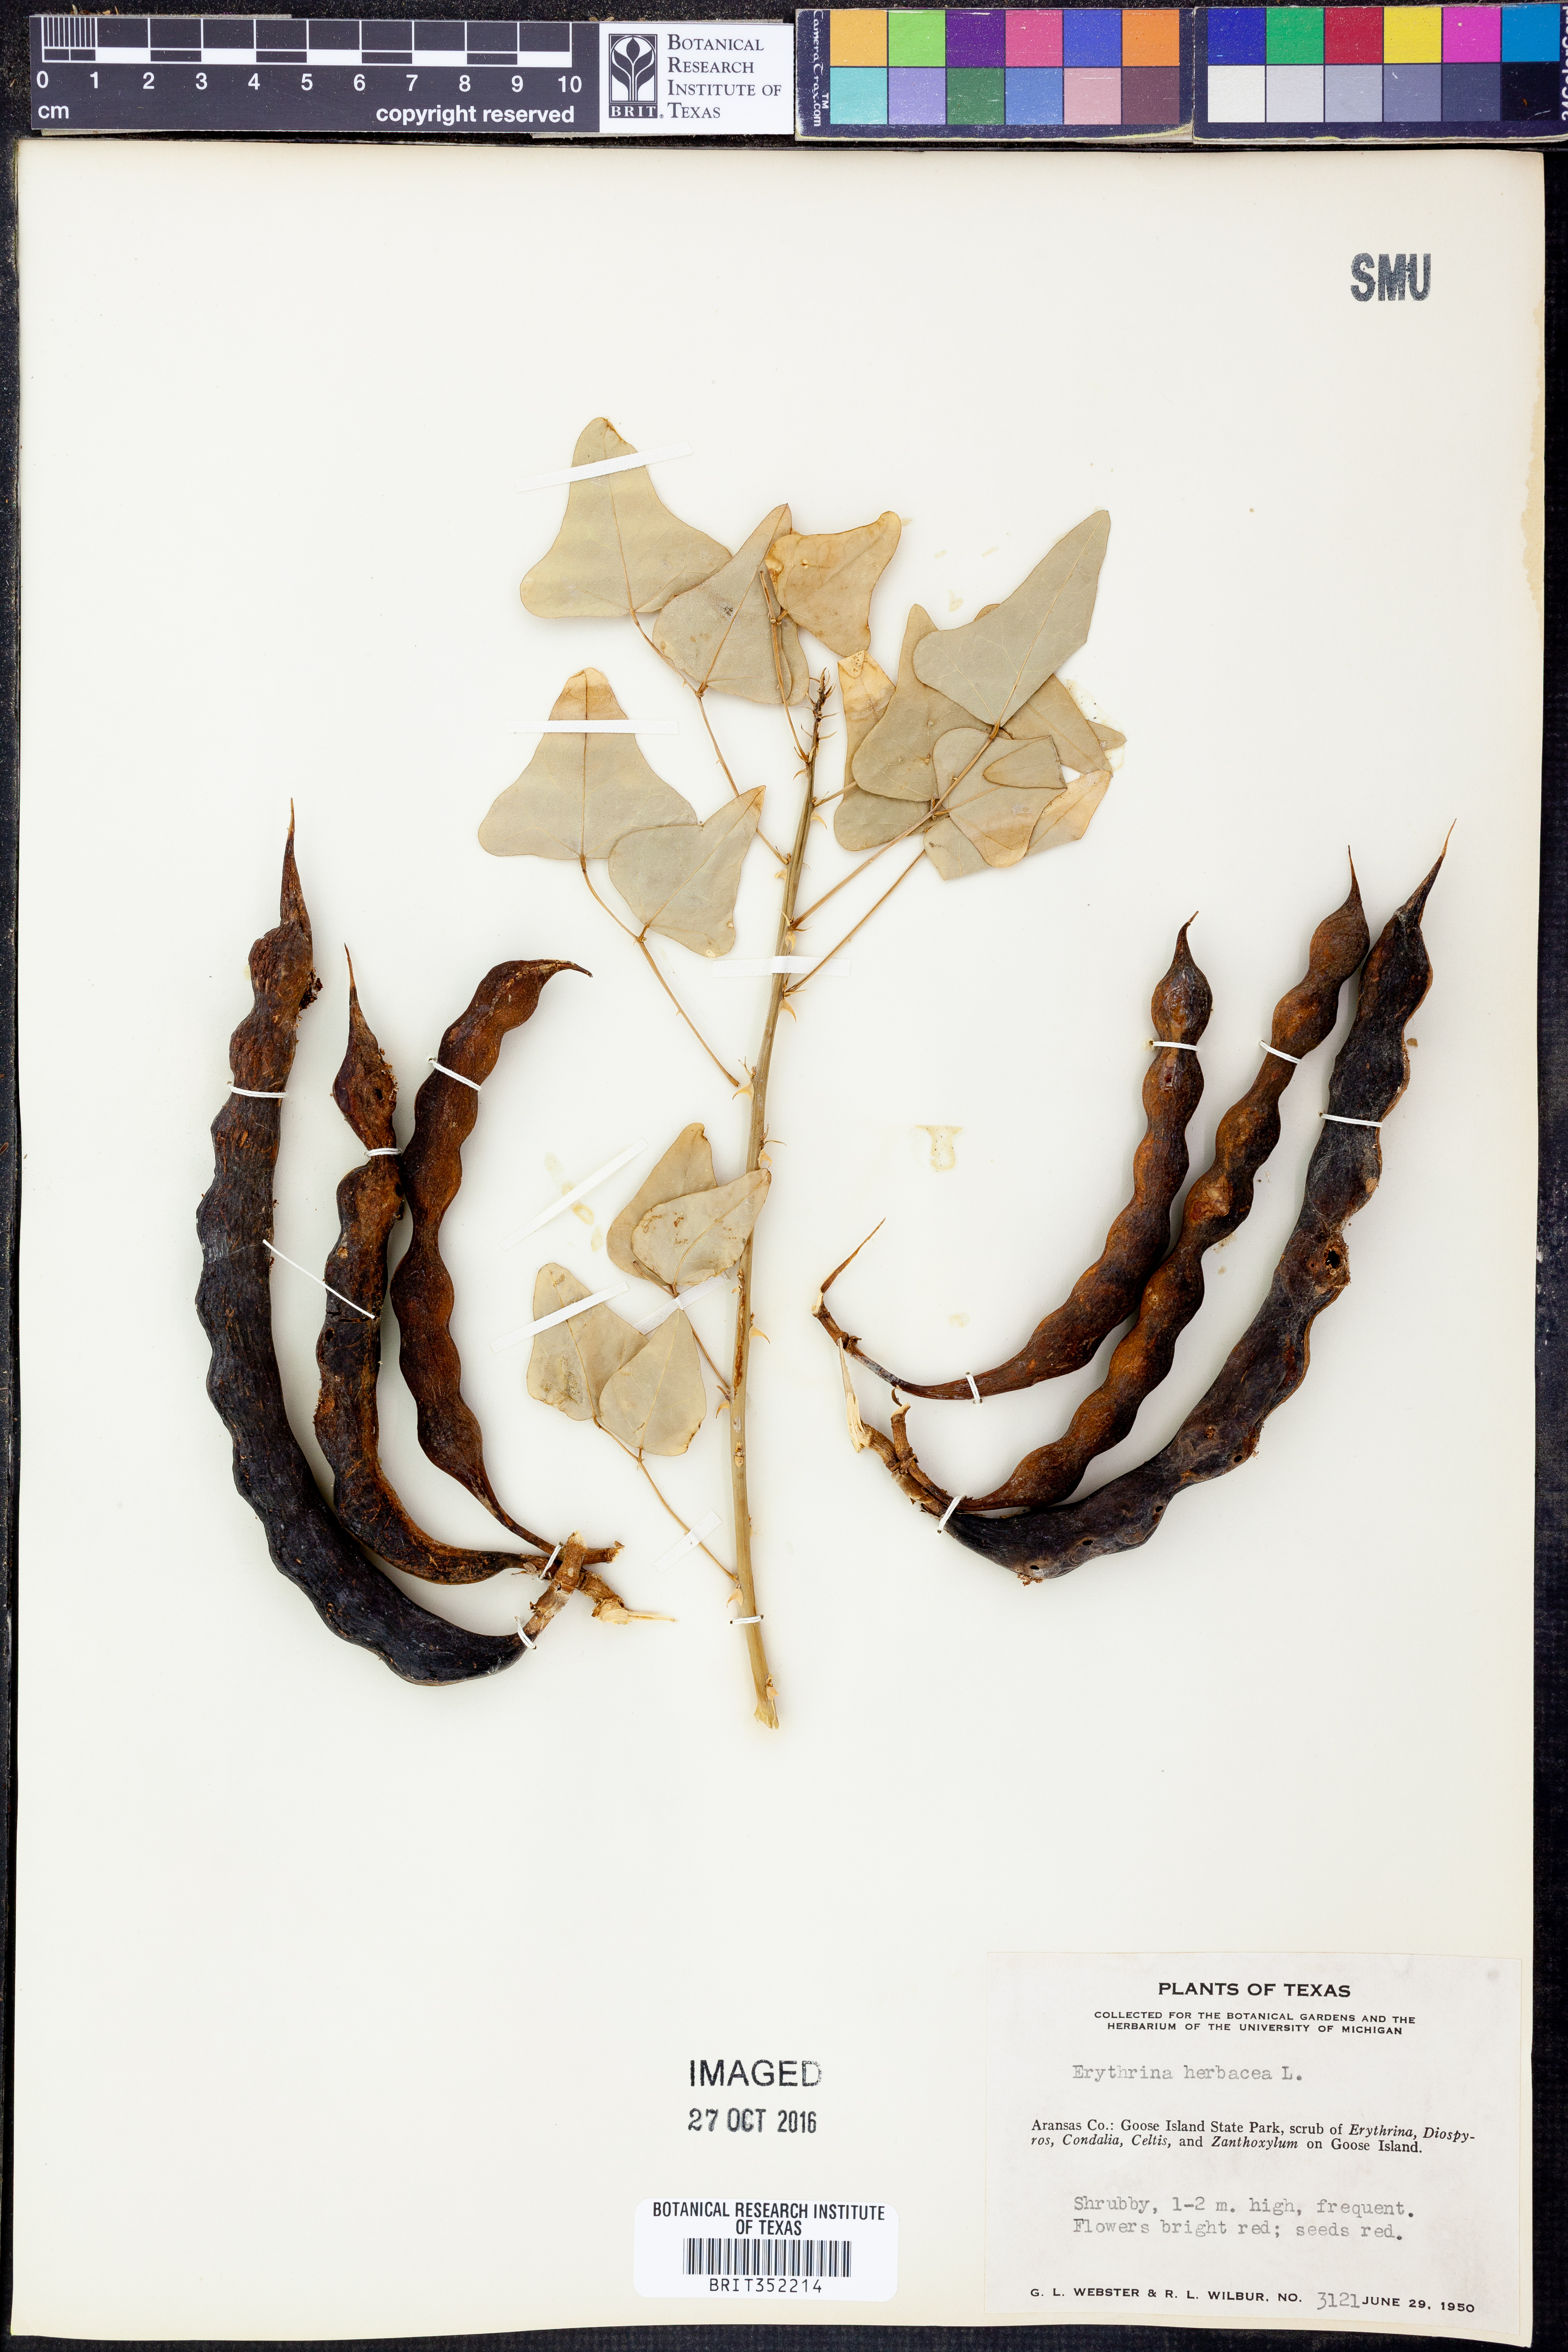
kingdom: Plantae
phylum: Tracheophyta
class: Magnoliopsida
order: Fabales
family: Fabaceae
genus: Erythrina
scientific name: Erythrina herbacea
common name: Coral-bean
